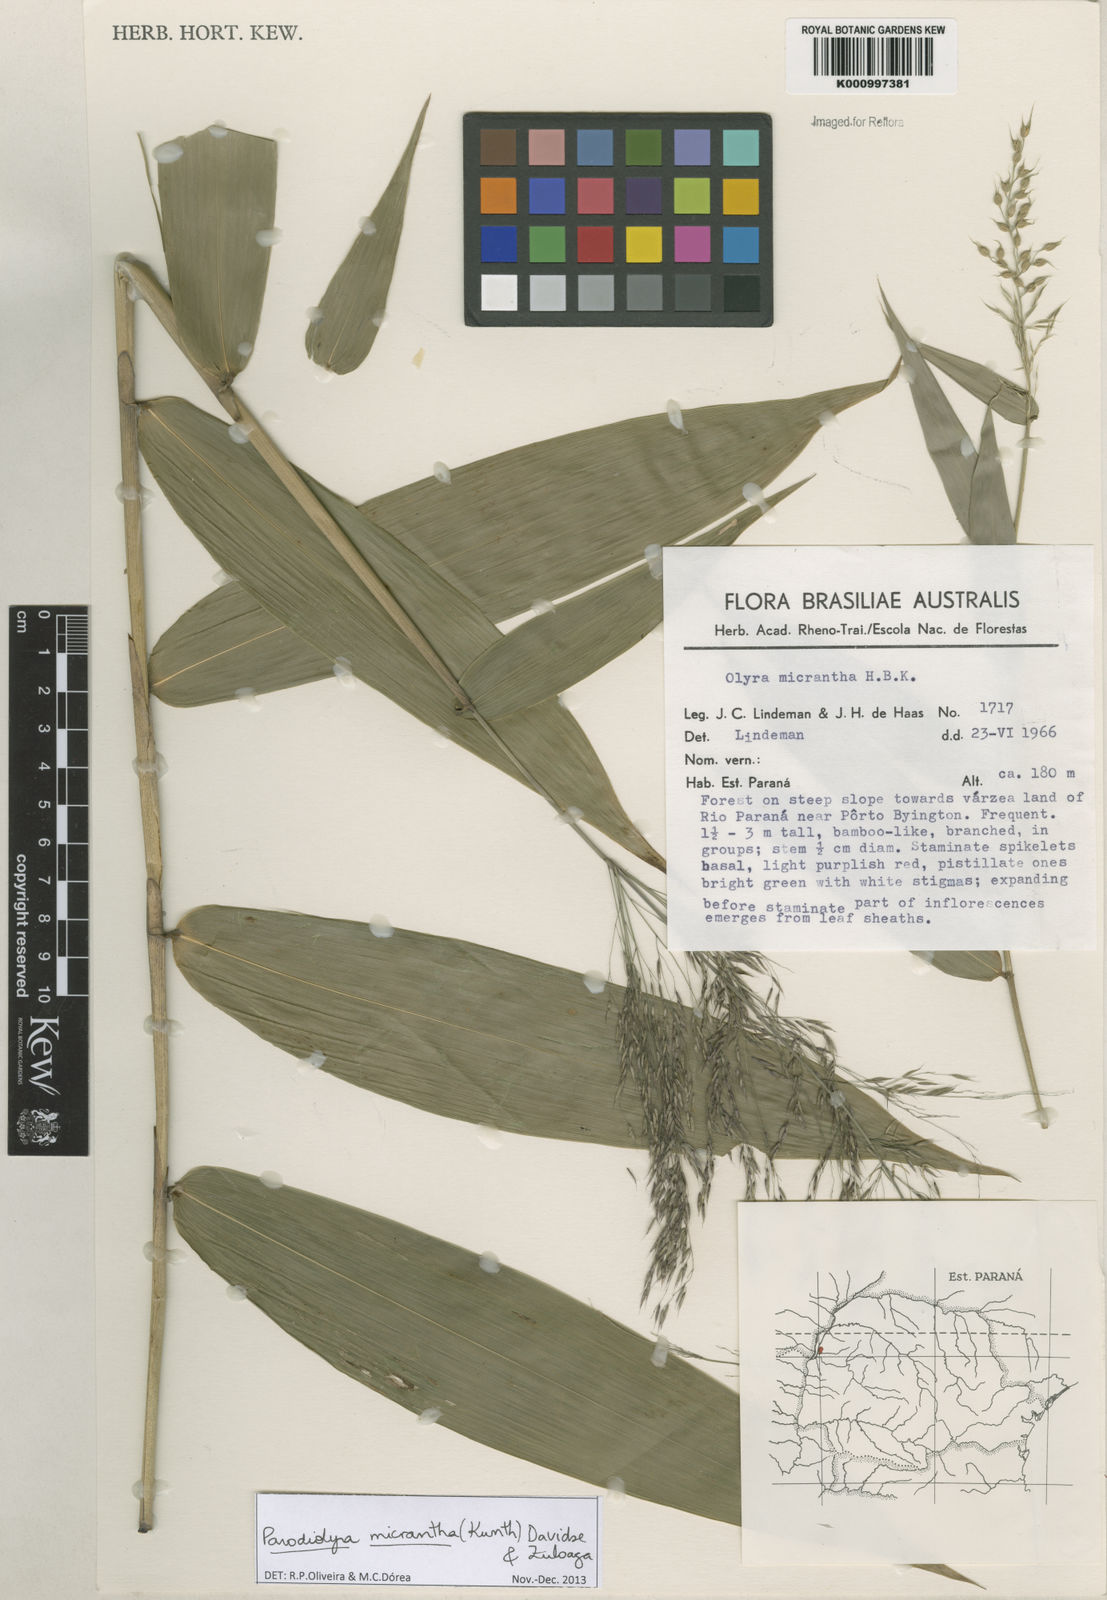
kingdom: Plantae
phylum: Tracheophyta
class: Liliopsida
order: Poales
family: Poaceae
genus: Taquara
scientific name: Taquara micrantha
